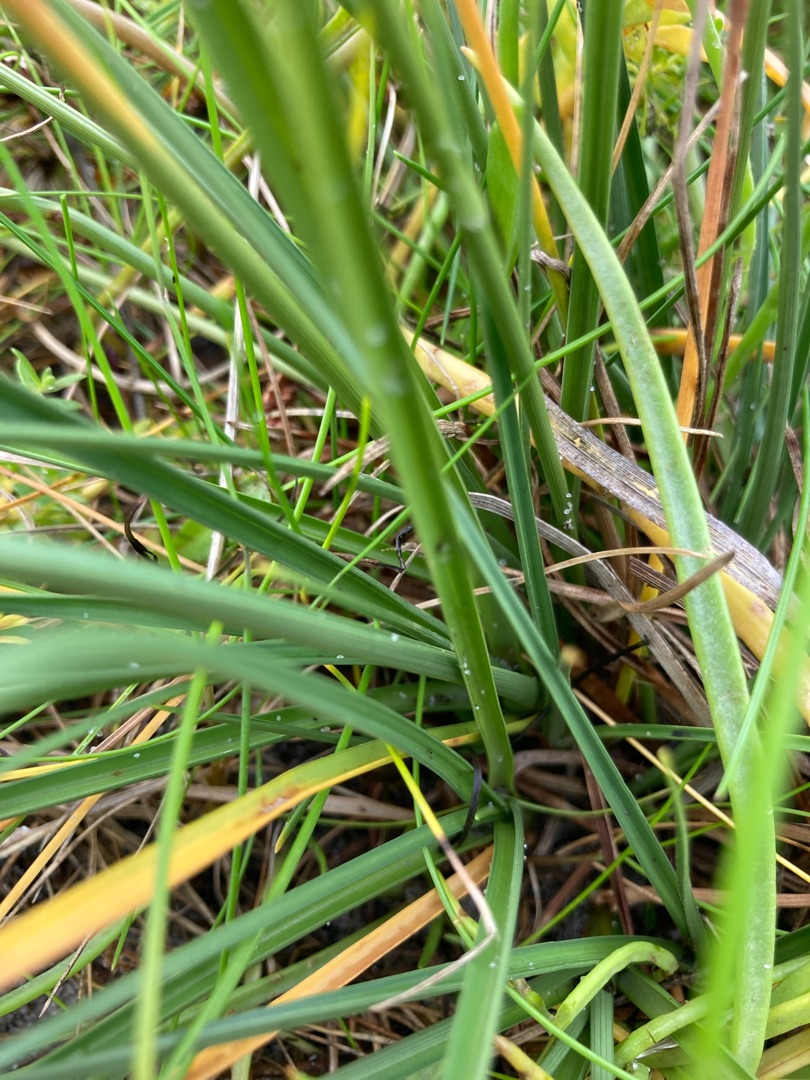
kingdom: Plantae
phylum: Tracheophyta
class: Liliopsida
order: Poales
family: Cyperaceae
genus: Carex
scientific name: Carex extensa
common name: Udspilet star
